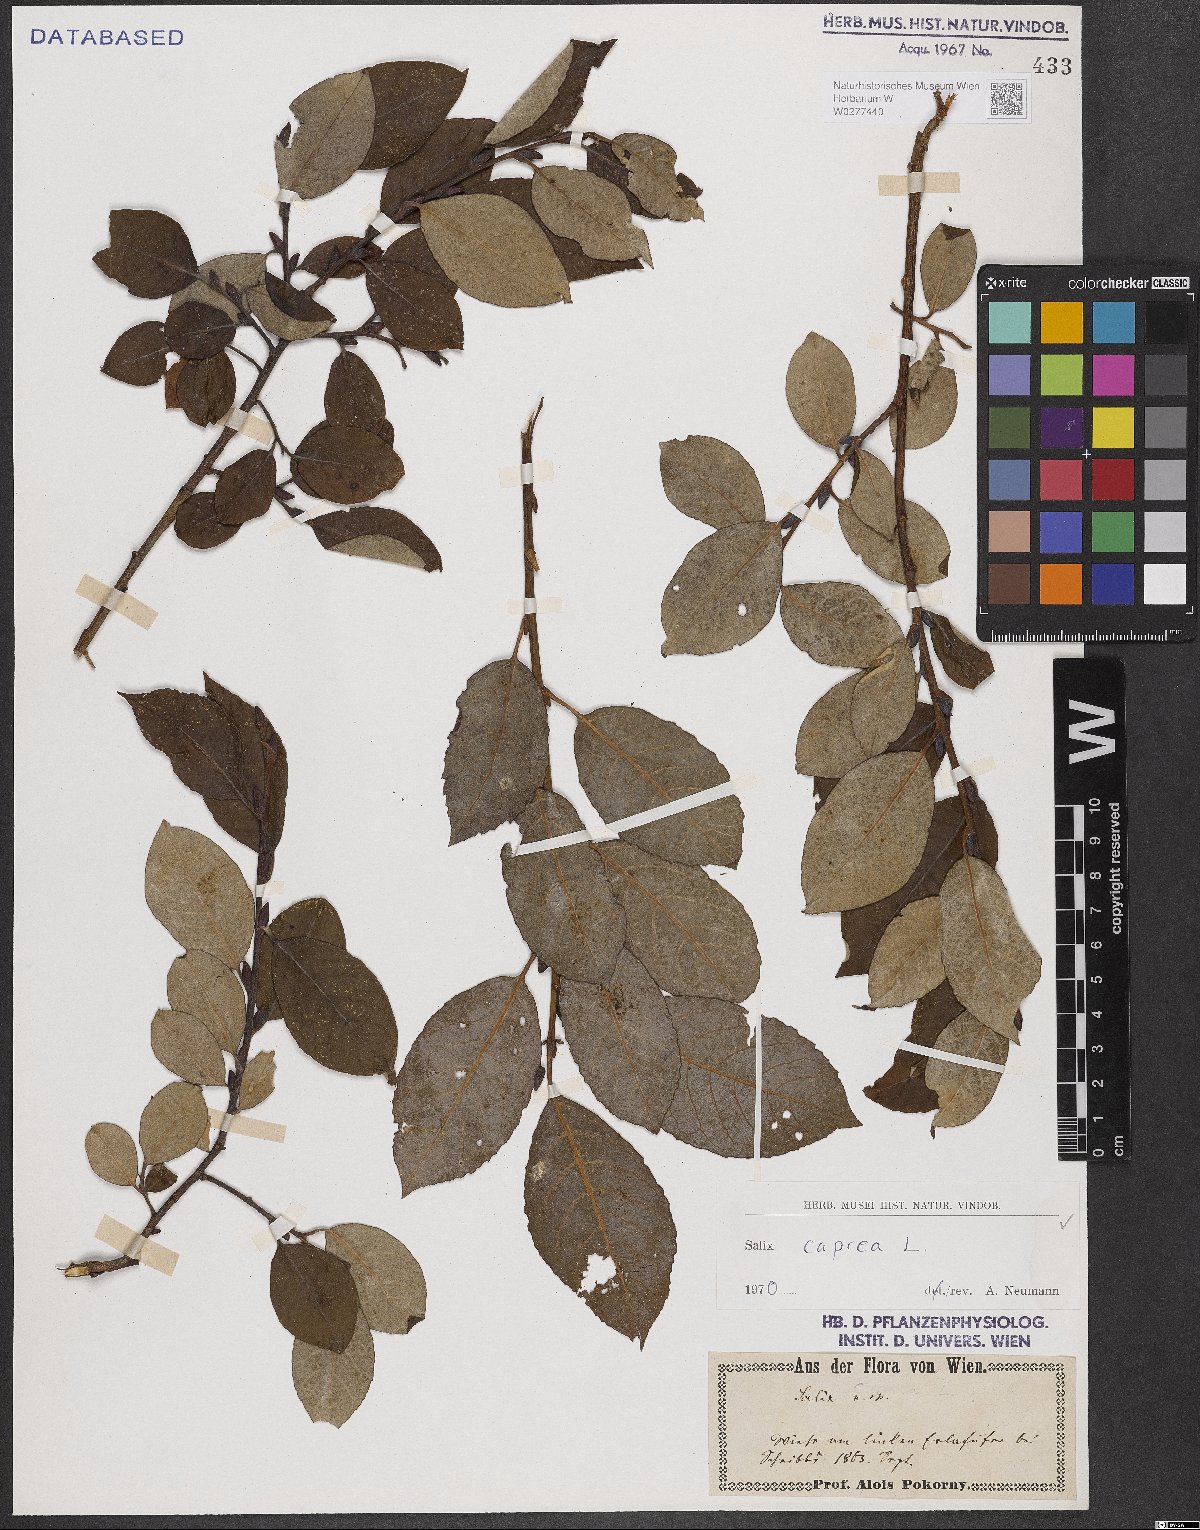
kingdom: Plantae
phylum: Tracheophyta
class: Magnoliopsida
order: Malpighiales
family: Salicaceae
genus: Salix
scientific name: Salix caprea
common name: Goat willow
